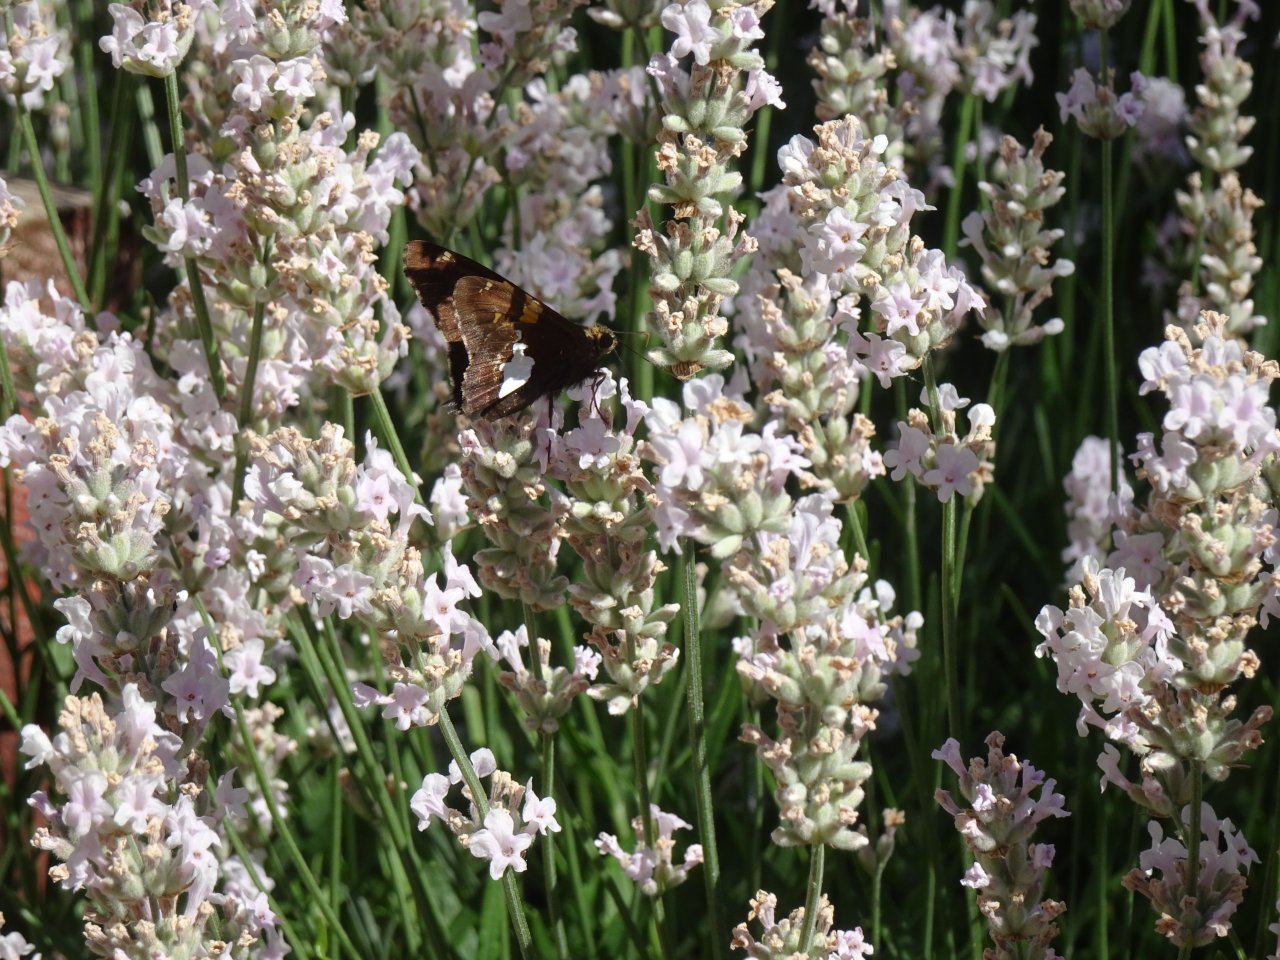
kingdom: Animalia
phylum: Arthropoda
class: Insecta
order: Lepidoptera
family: Hesperiidae
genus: Epargyreus
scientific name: Epargyreus clarus
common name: Silver-spotted Skipper
